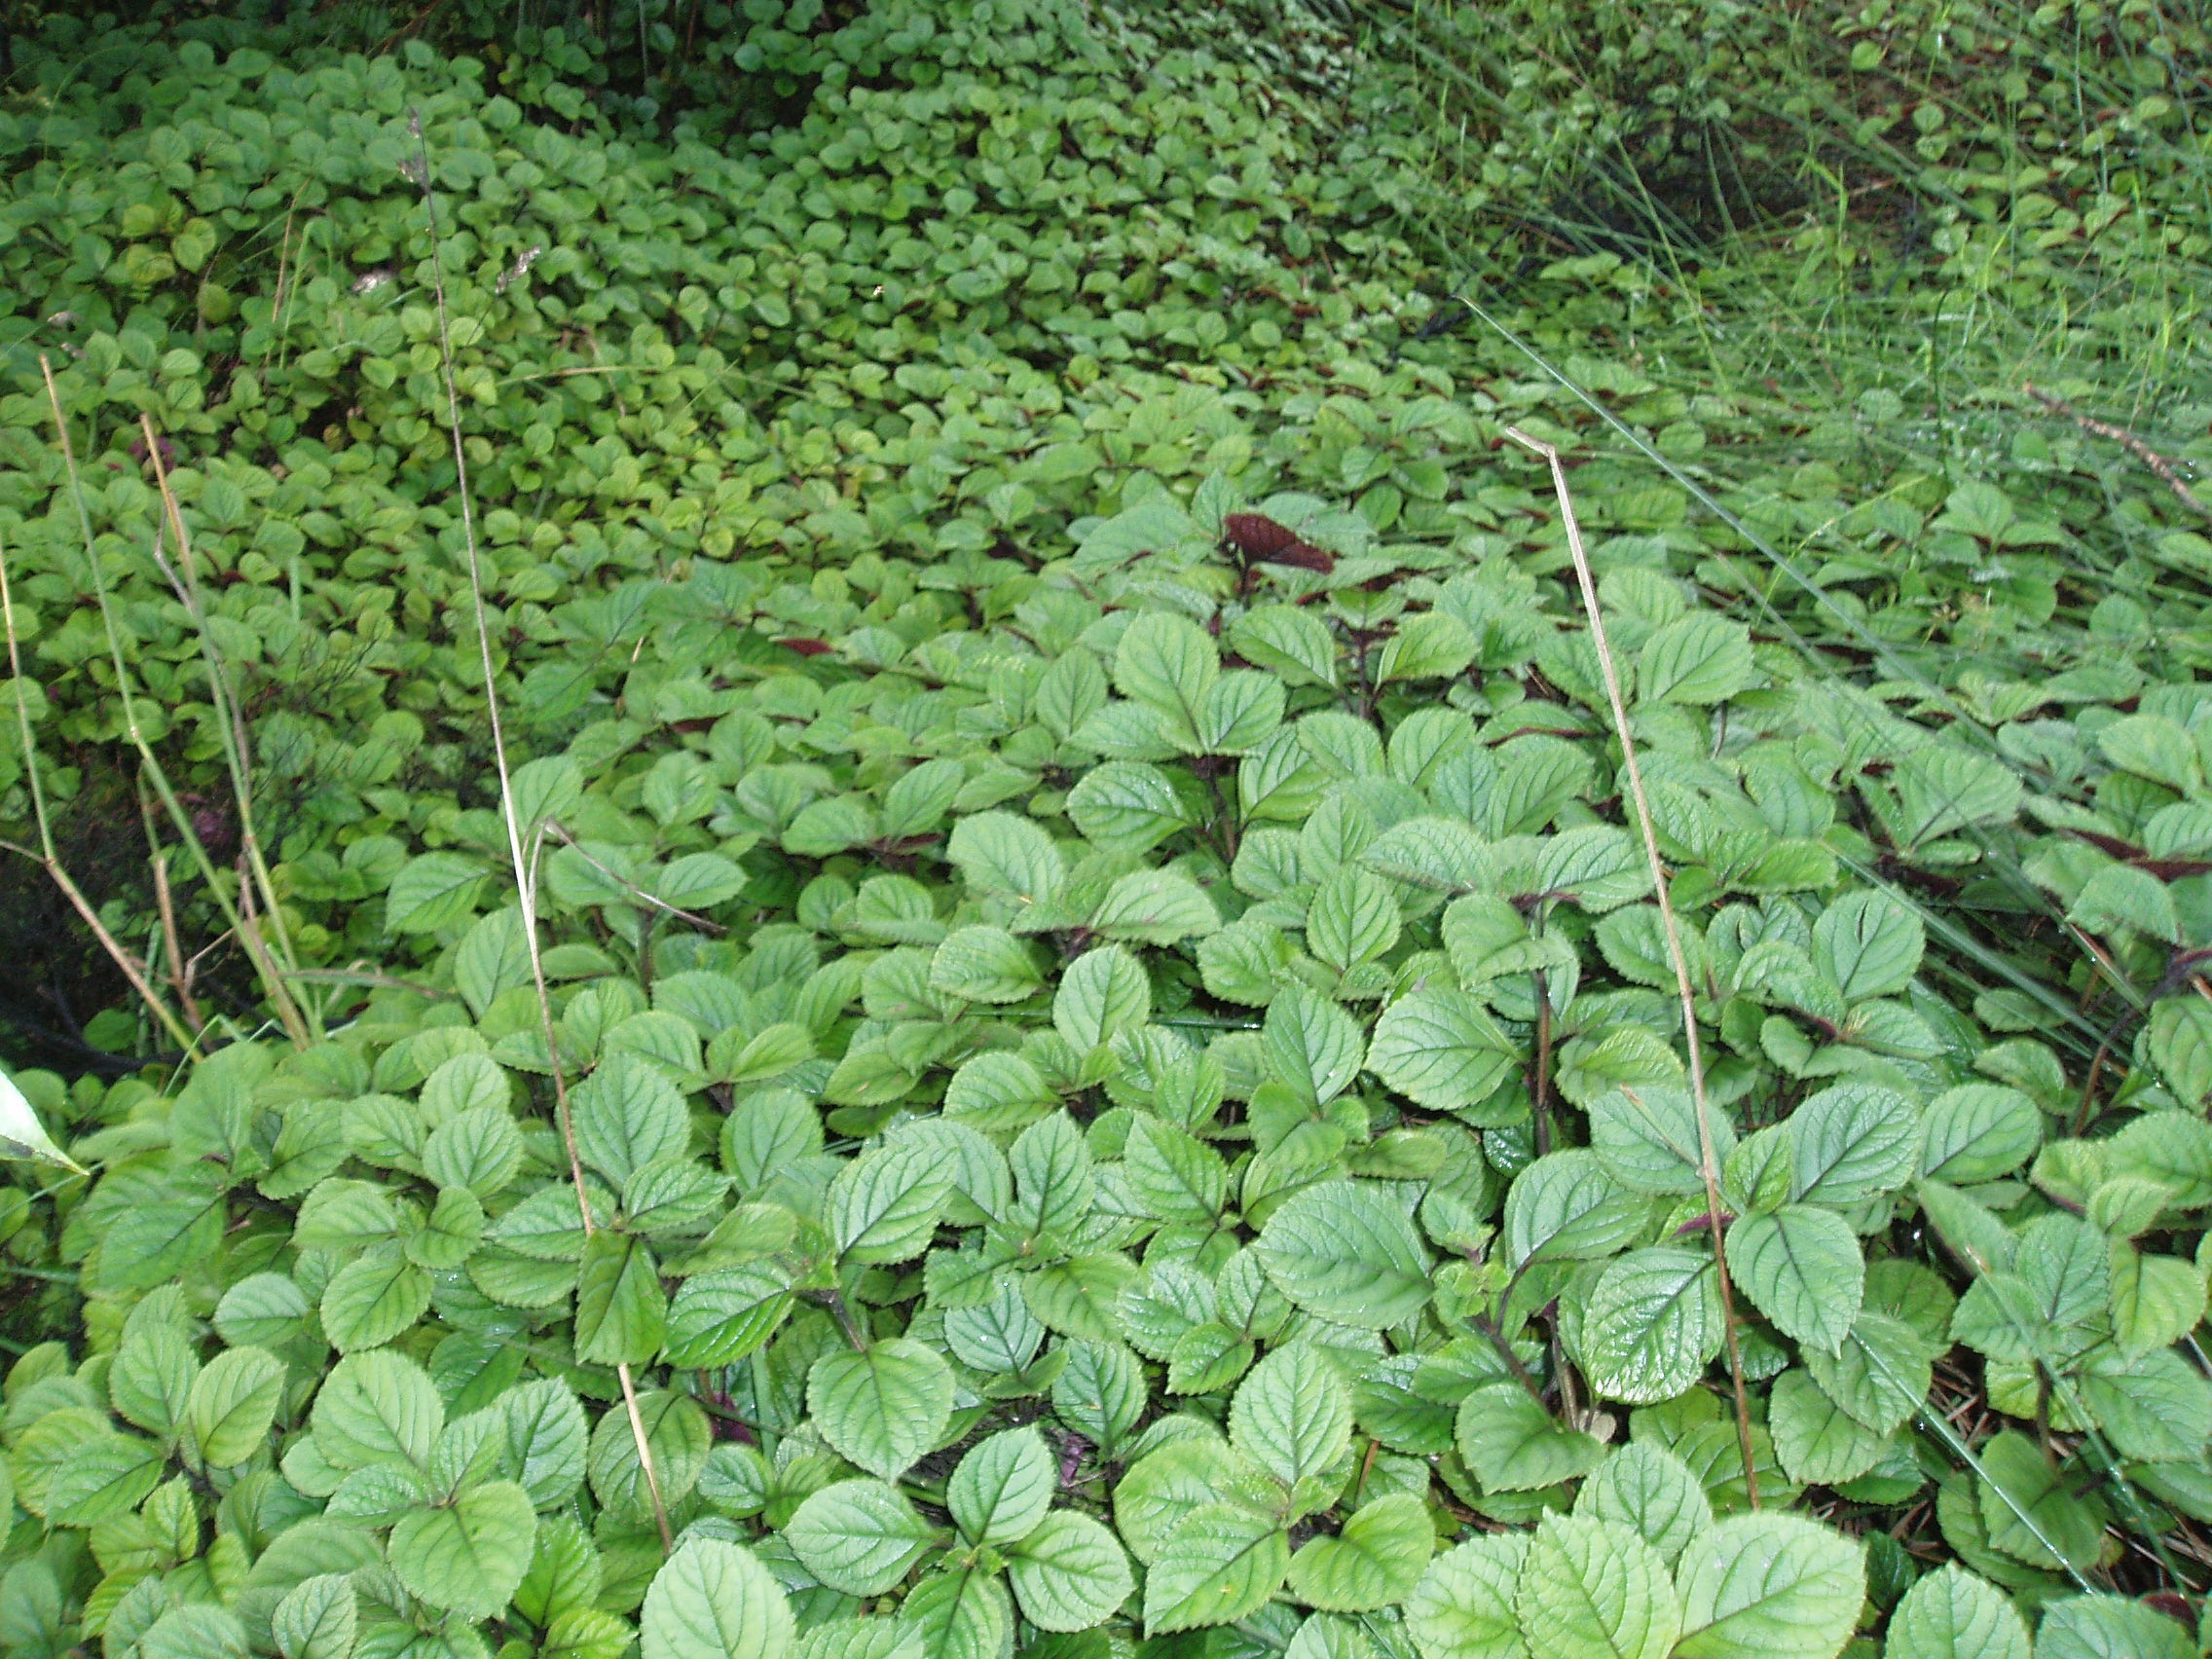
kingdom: Plantae
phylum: Tracheophyta
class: Magnoliopsida
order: Lamiales
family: Lamiaceae
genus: Plectranthus
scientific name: Plectranthus ciliatus
